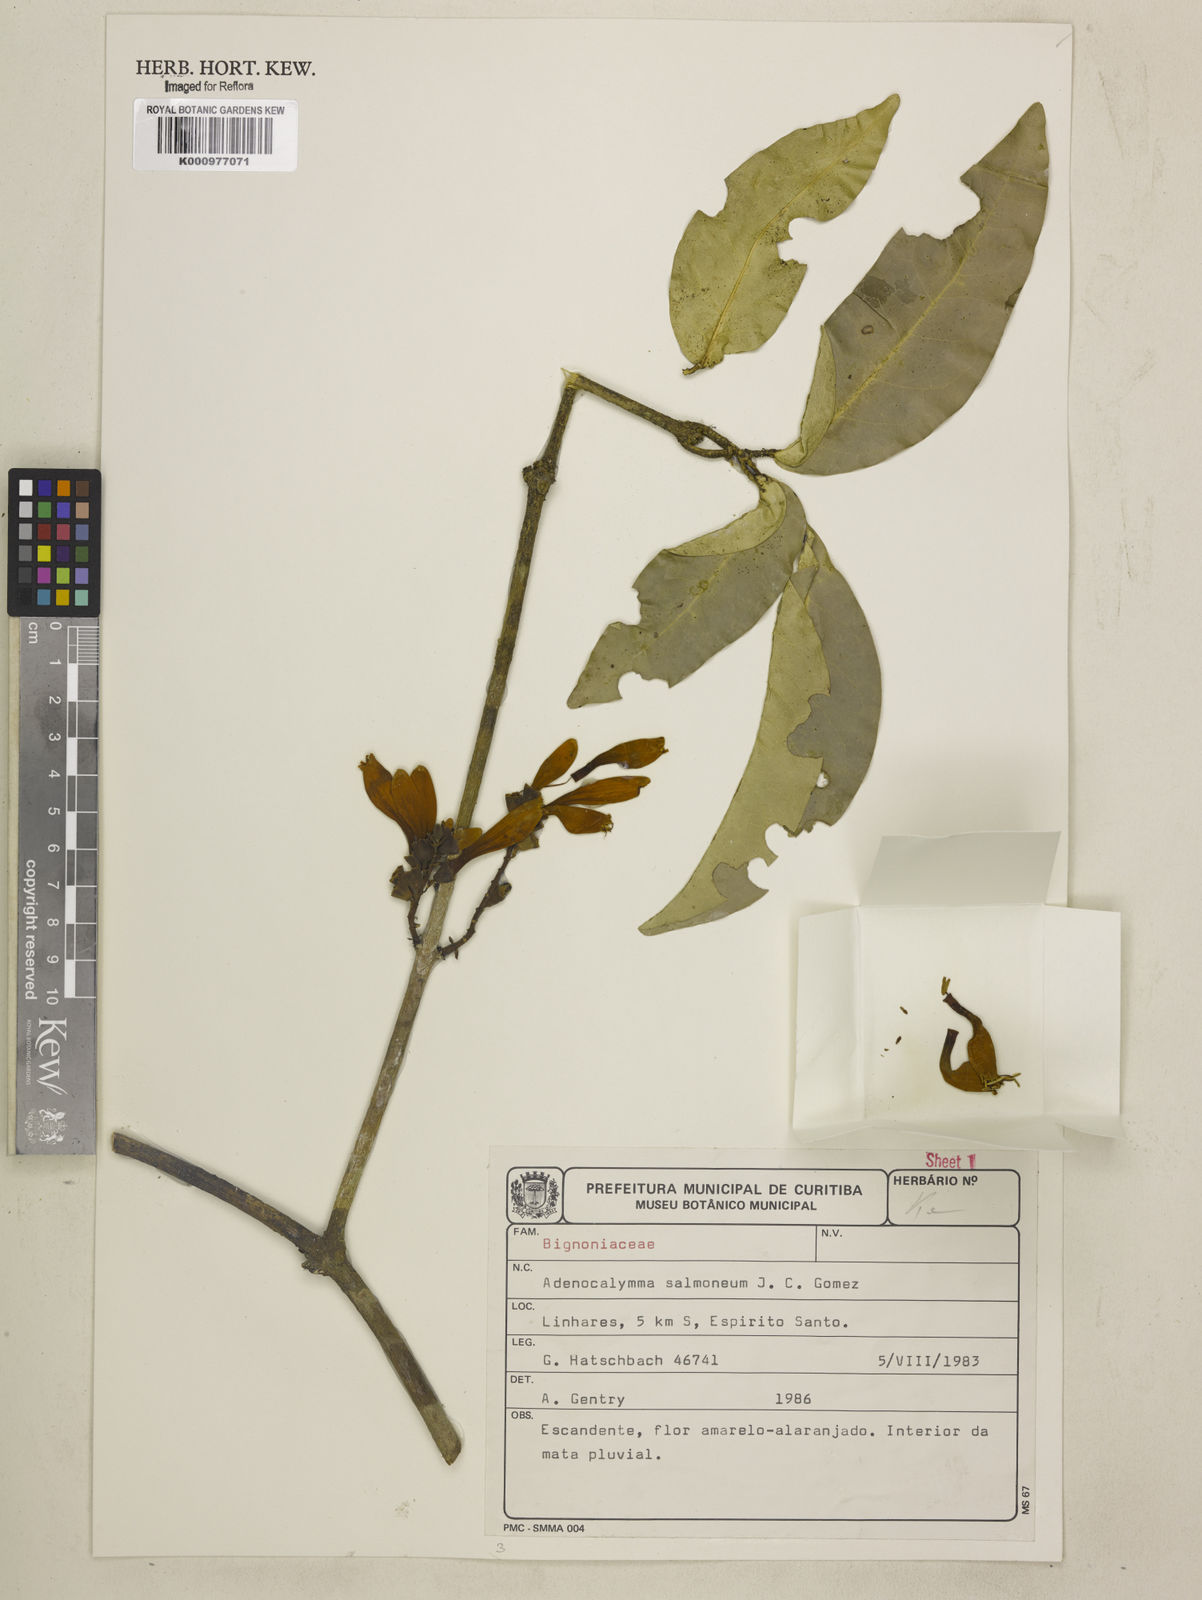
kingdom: Plantae
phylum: Tracheophyta
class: Magnoliopsida
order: Lamiales
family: Bignoniaceae
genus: Adenocalymma
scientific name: Adenocalymma salmoneum
